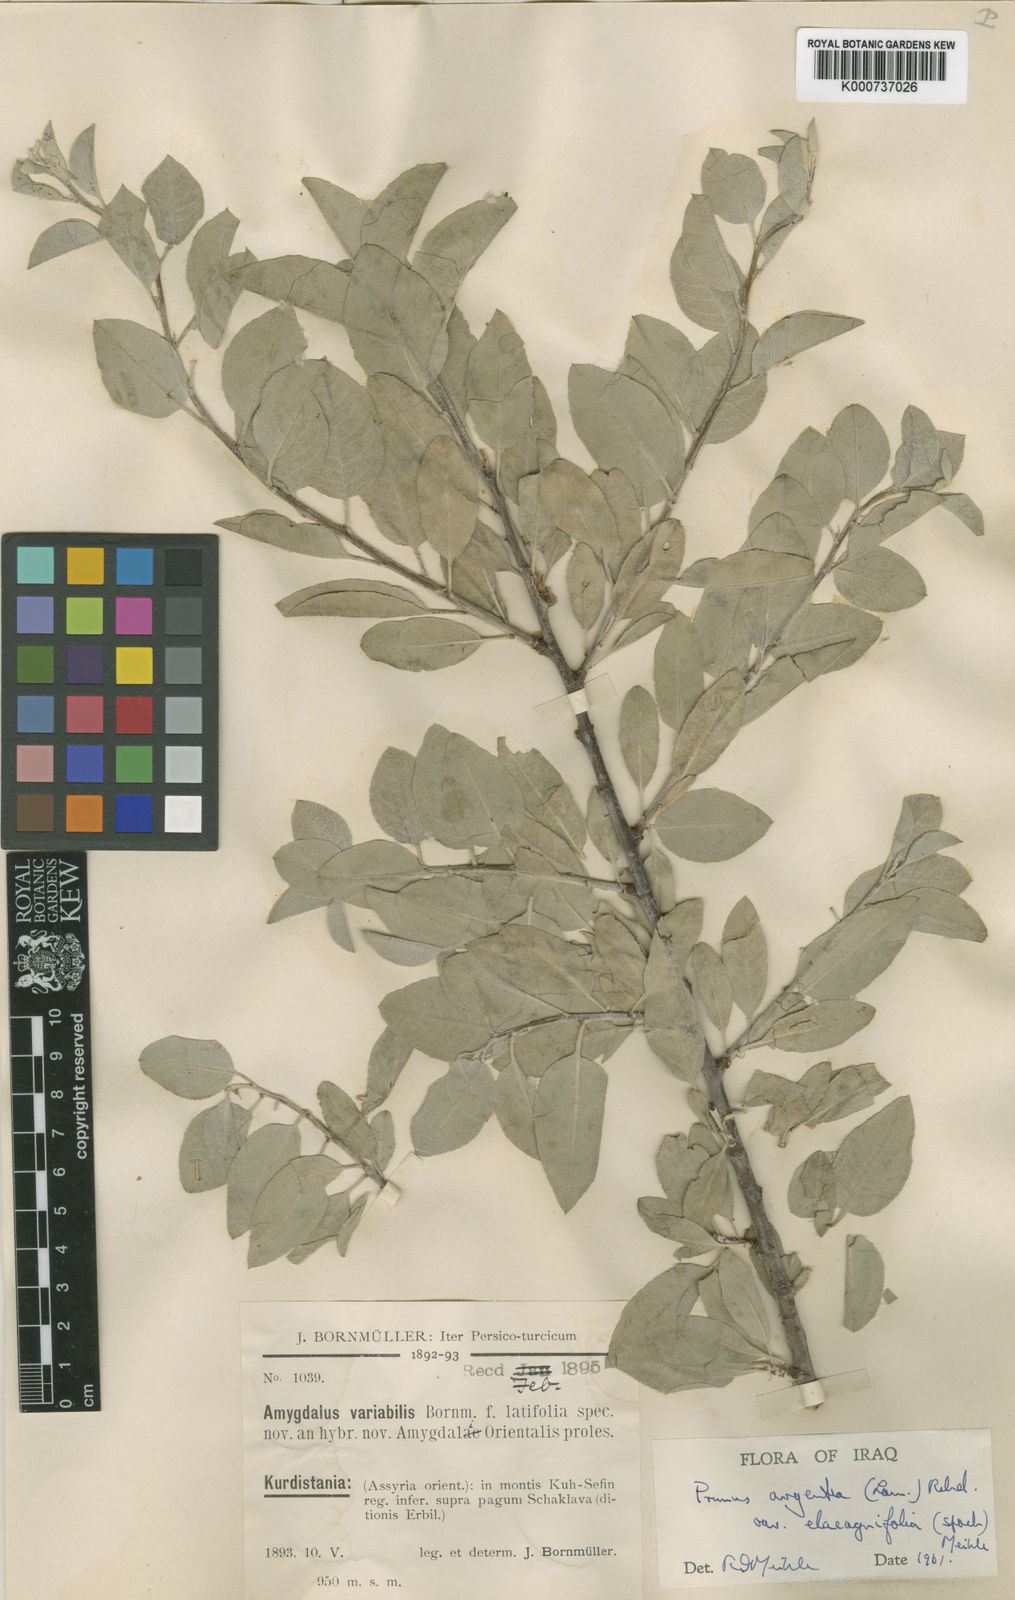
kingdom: Plantae
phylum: Tracheophyta
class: Magnoliopsida
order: Rosales
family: Rosaceae
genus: Prunus
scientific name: Prunus argentea
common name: Silver almond
